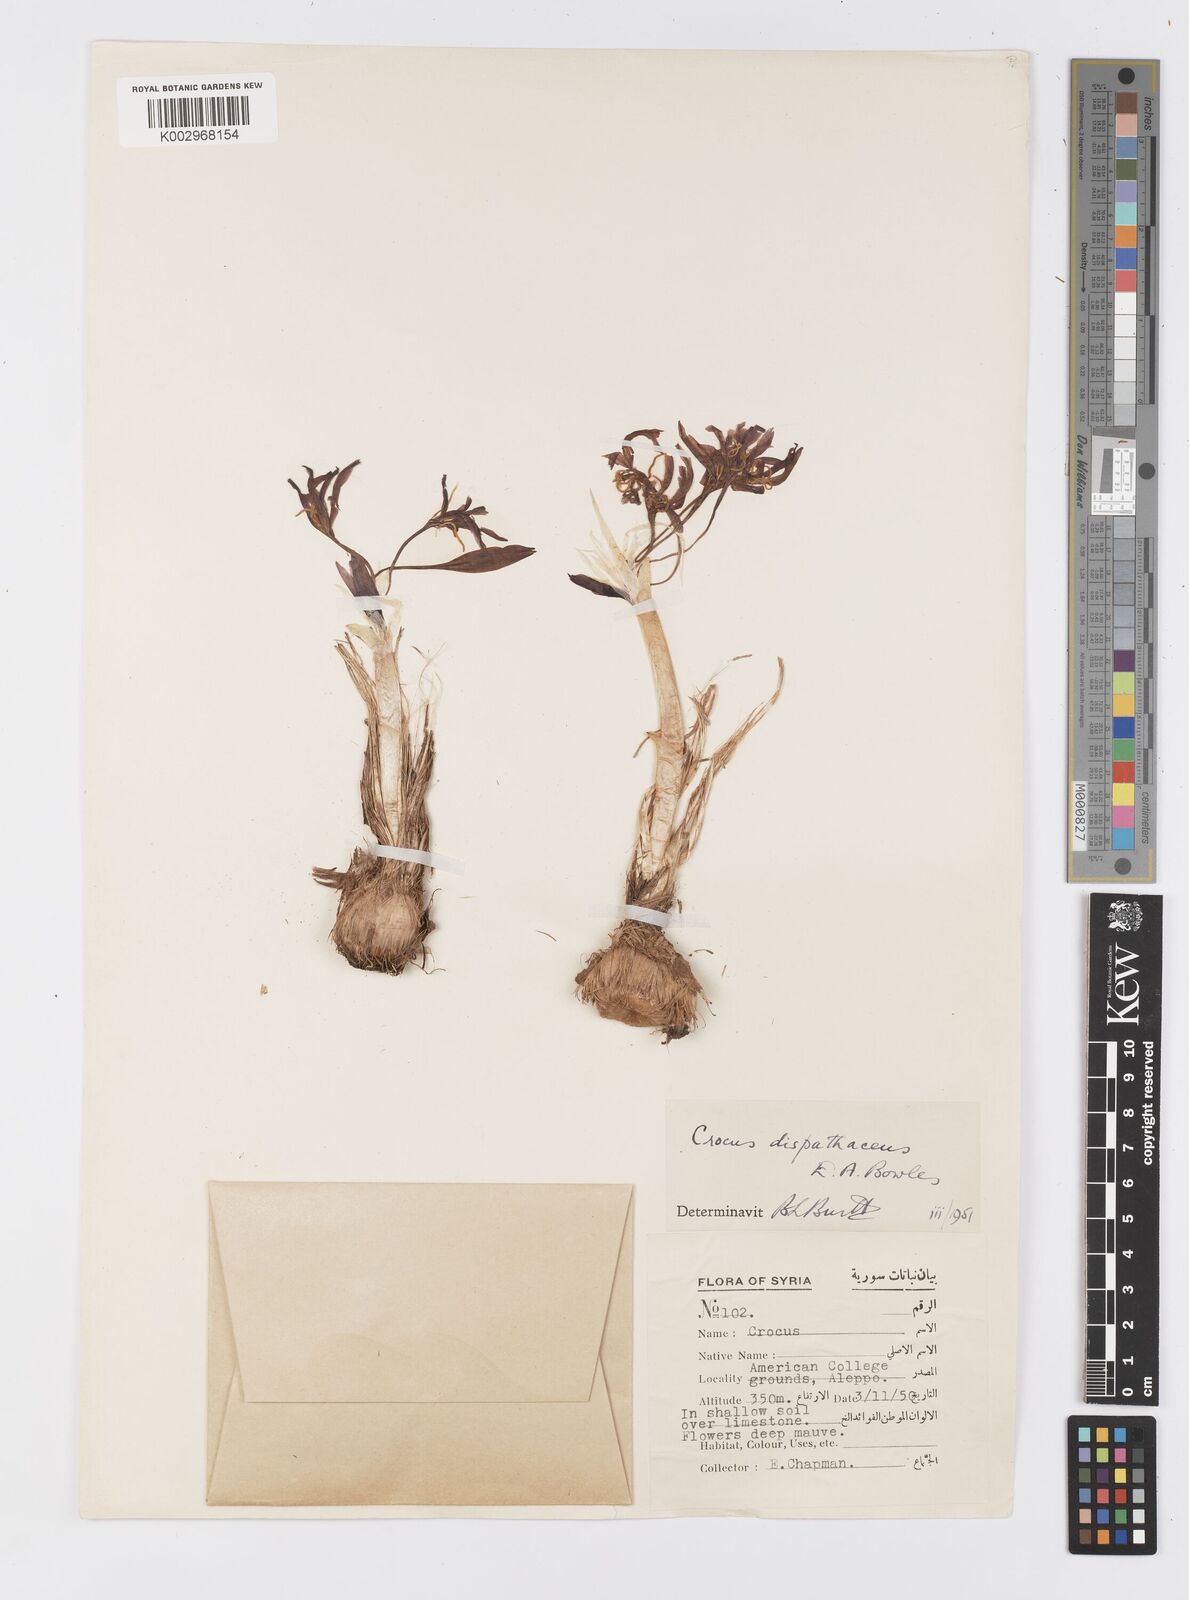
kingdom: Plantae
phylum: Tracheophyta
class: Liliopsida
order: Asparagales
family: Iridaceae
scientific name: Iridaceae
